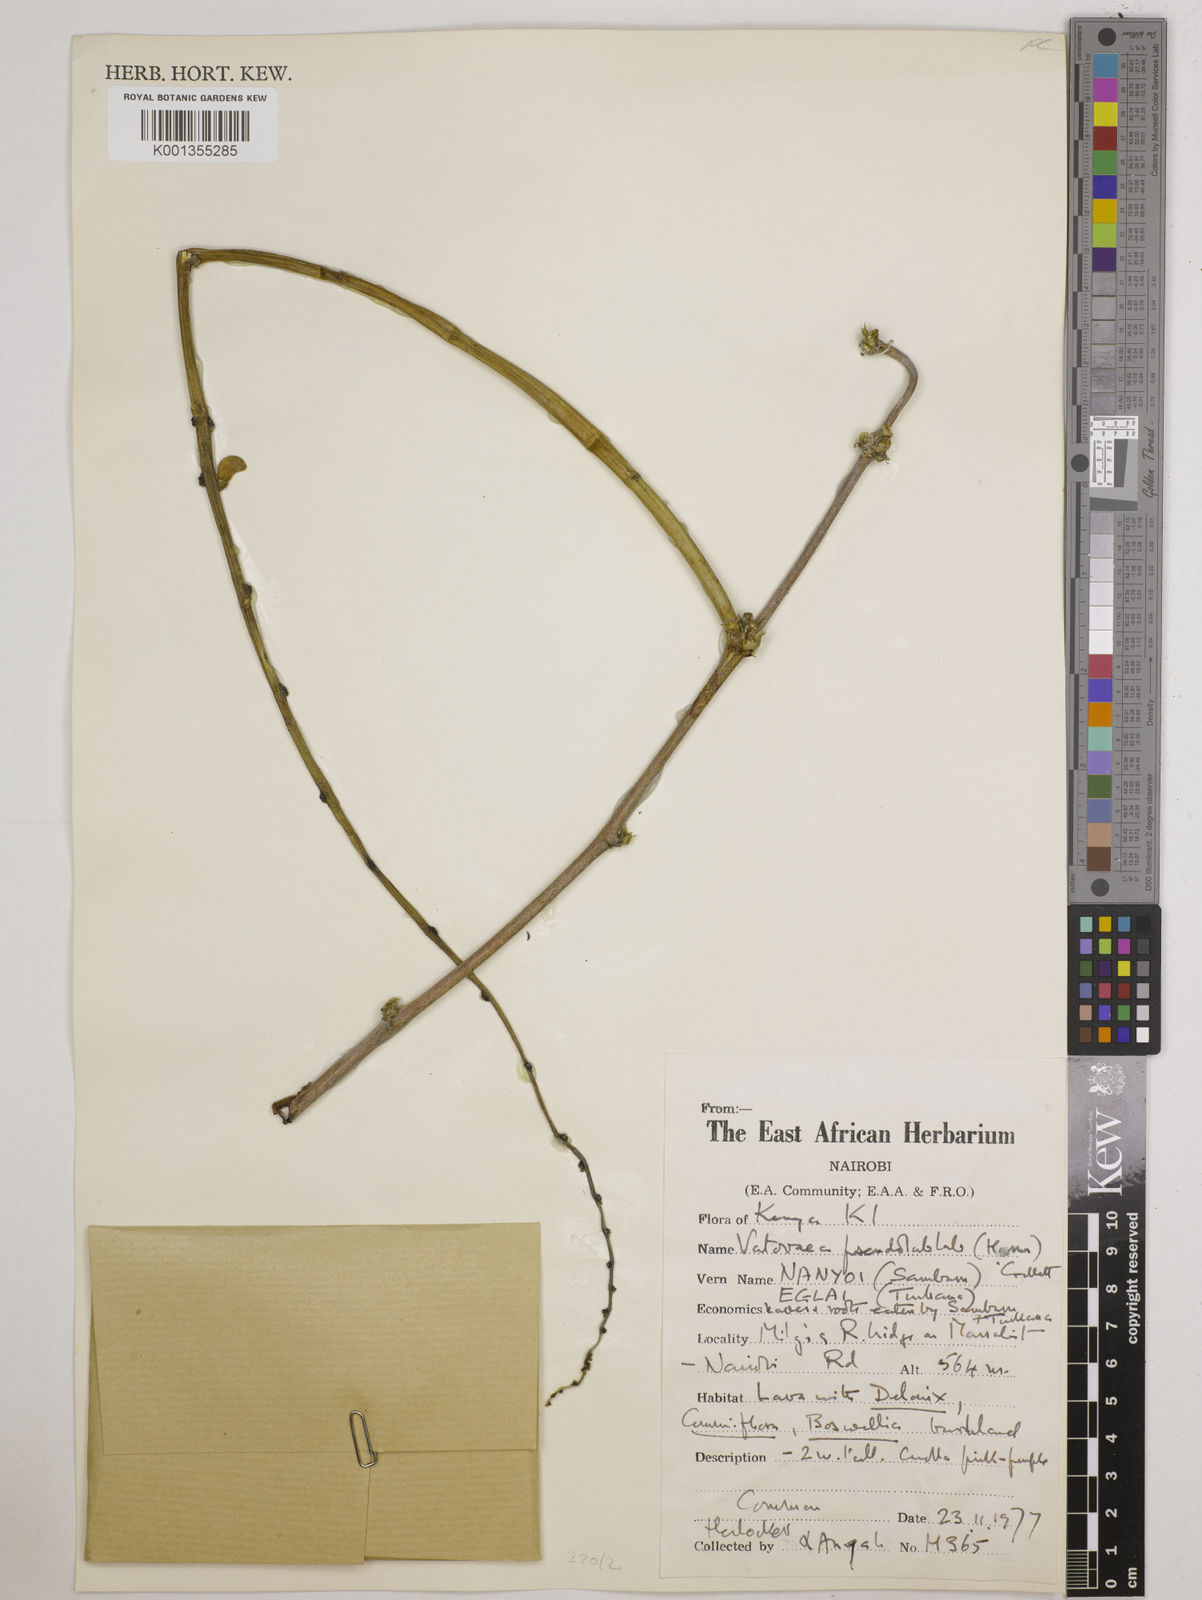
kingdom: Plantae
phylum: Tracheophyta
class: Magnoliopsida
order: Fabales
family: Fabaceae
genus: Vatovaea
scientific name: Vatovaea pseudolablab
